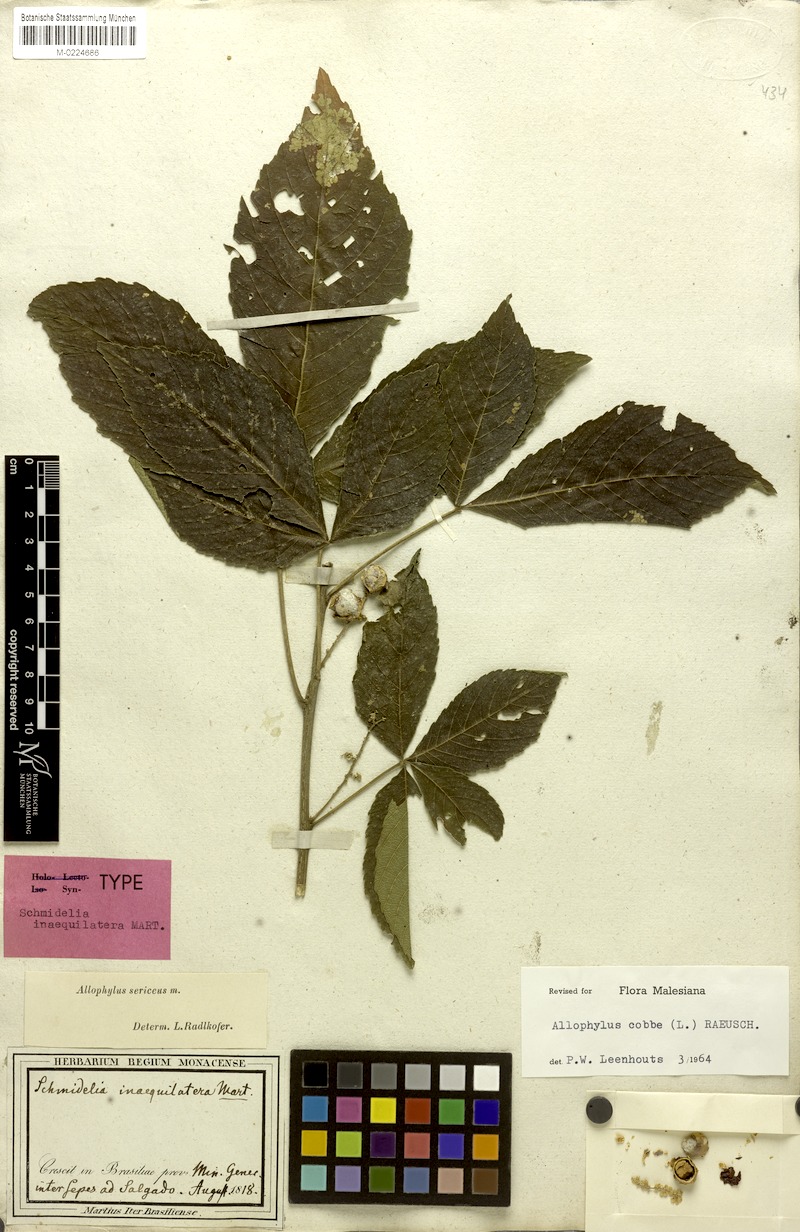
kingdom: Plantae
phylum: Tracheophyta
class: Magnoliopsida
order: Sapindales
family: Sapindaceae
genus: Allophylus
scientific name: Allophylus sericeus
